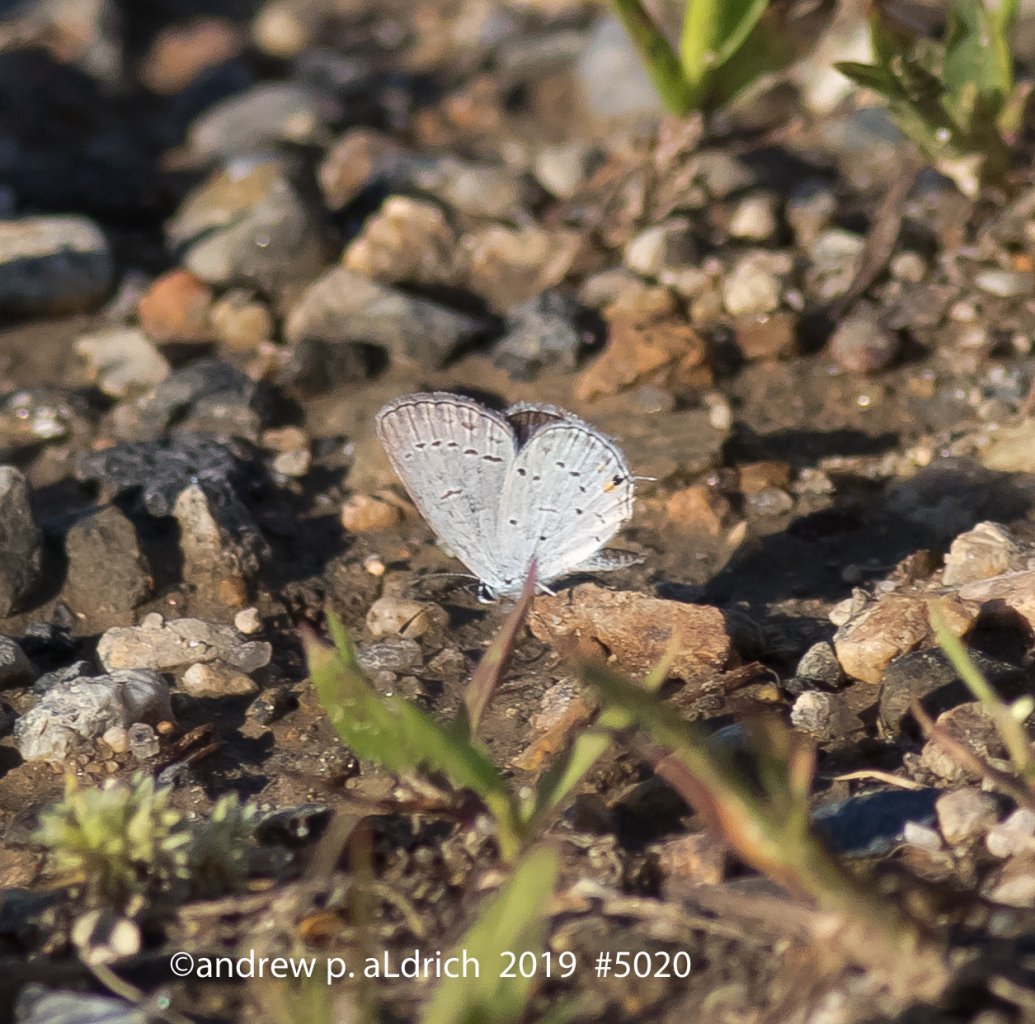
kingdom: Animalia
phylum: Arthropoda
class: Insecta
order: Lepidoptera
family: Lycaenidae
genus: Elkalyce
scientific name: Elkalyce comyntas
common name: Eastern Tailed-Blue
